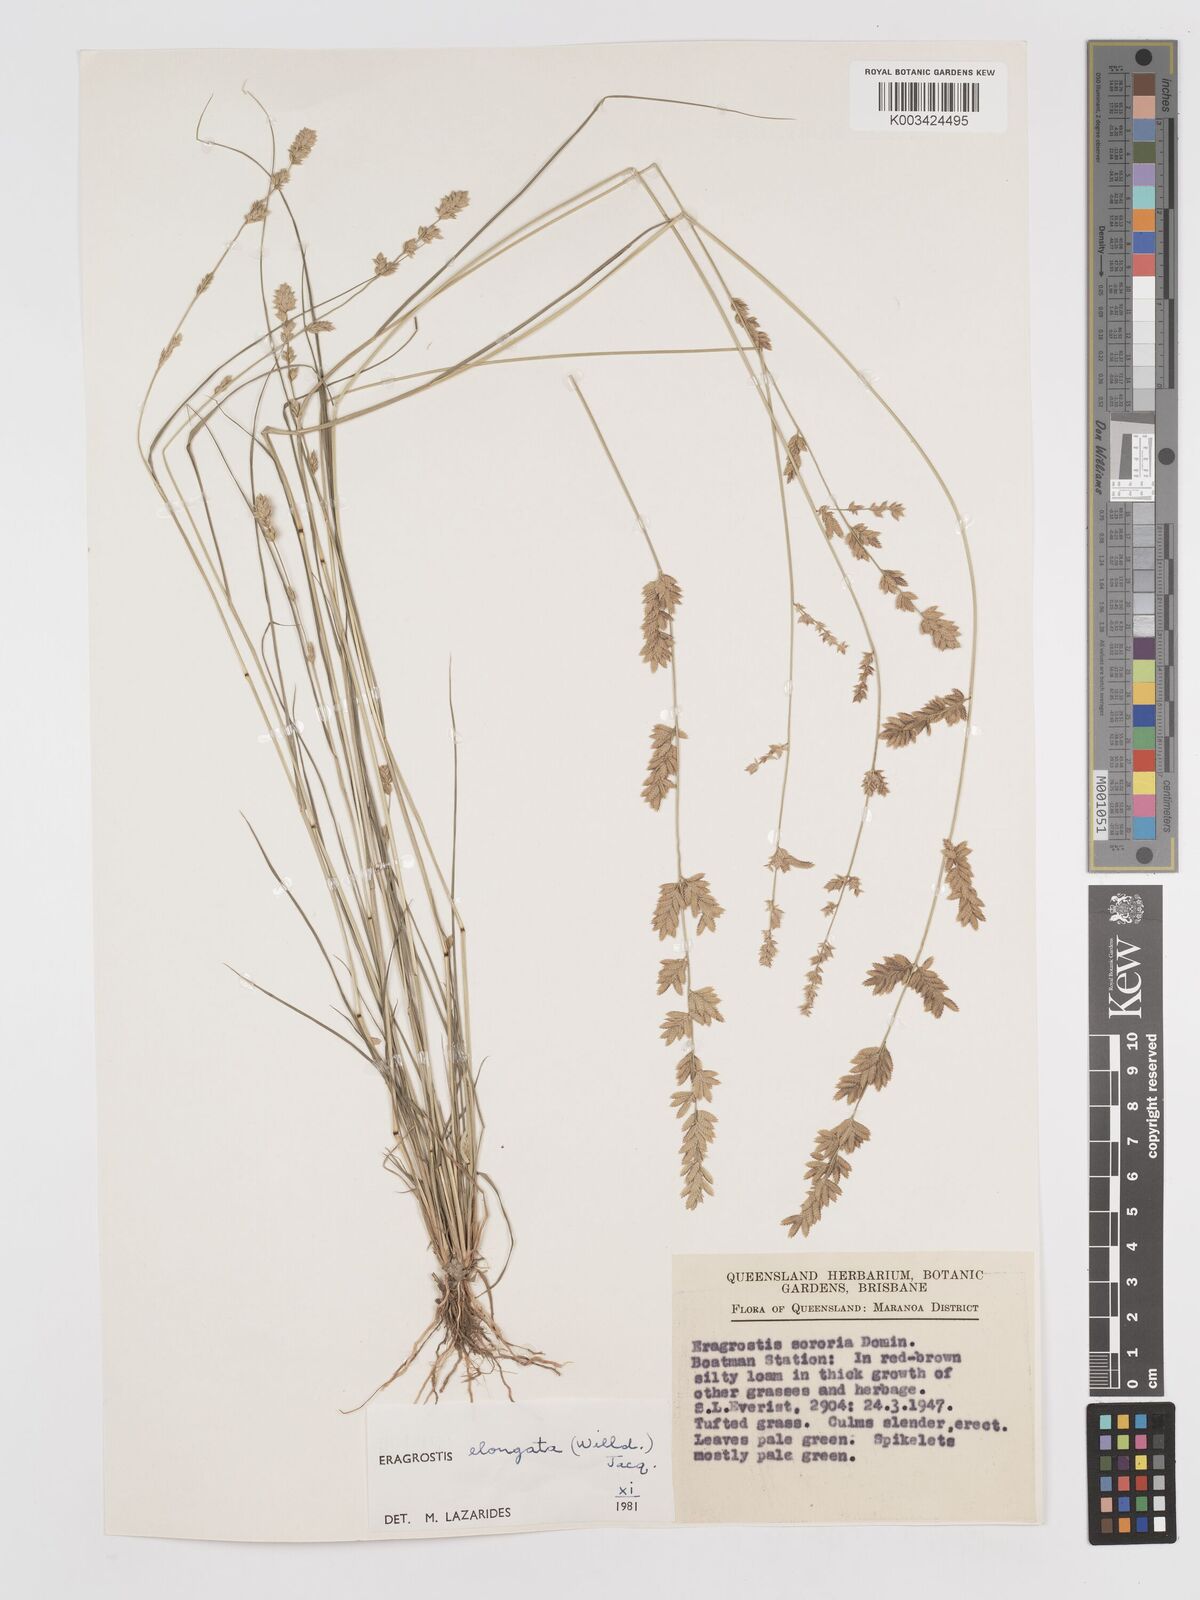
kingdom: Plantae
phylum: Tracheophyta
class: Liliopsida
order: Poales
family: Poaceae
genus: Eragrostis
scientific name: Eragrostis elongata
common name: Long lovegrass
